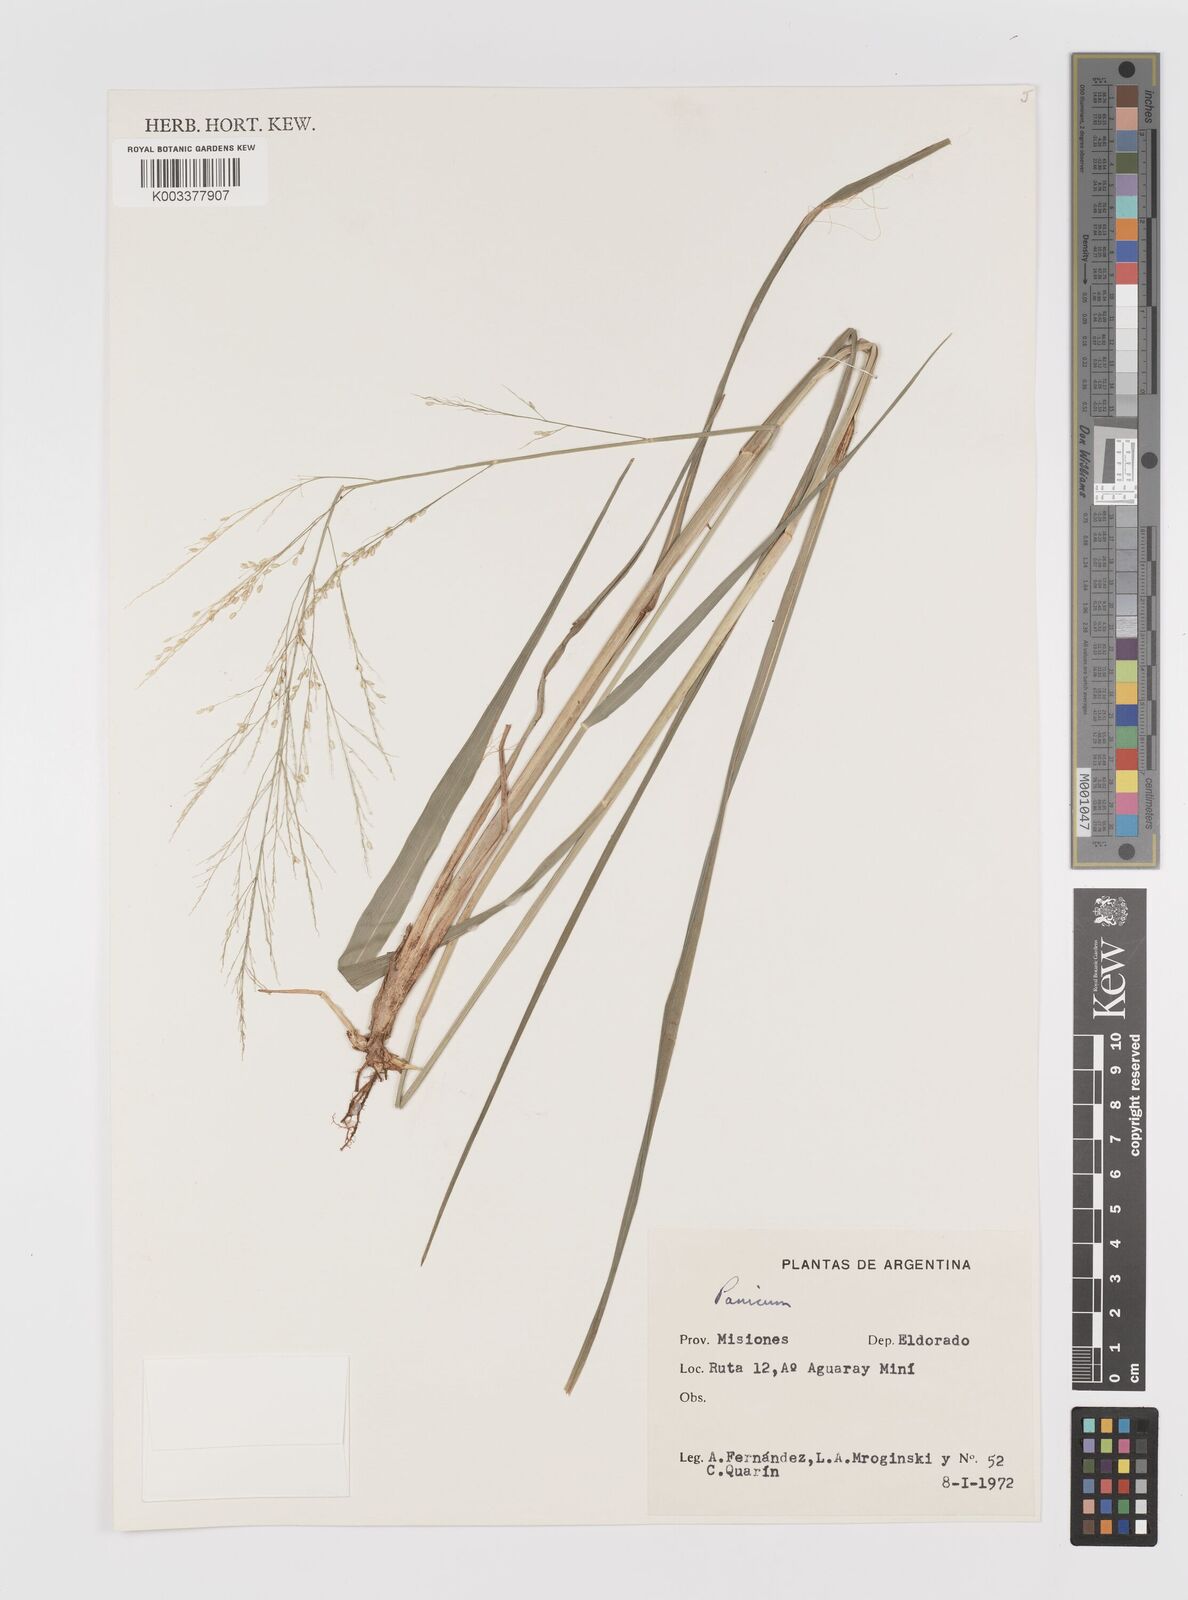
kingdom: Plantae
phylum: Tracheophyta
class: Liliopsida
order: Poales
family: Poaceae
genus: Panicum
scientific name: Panicum
